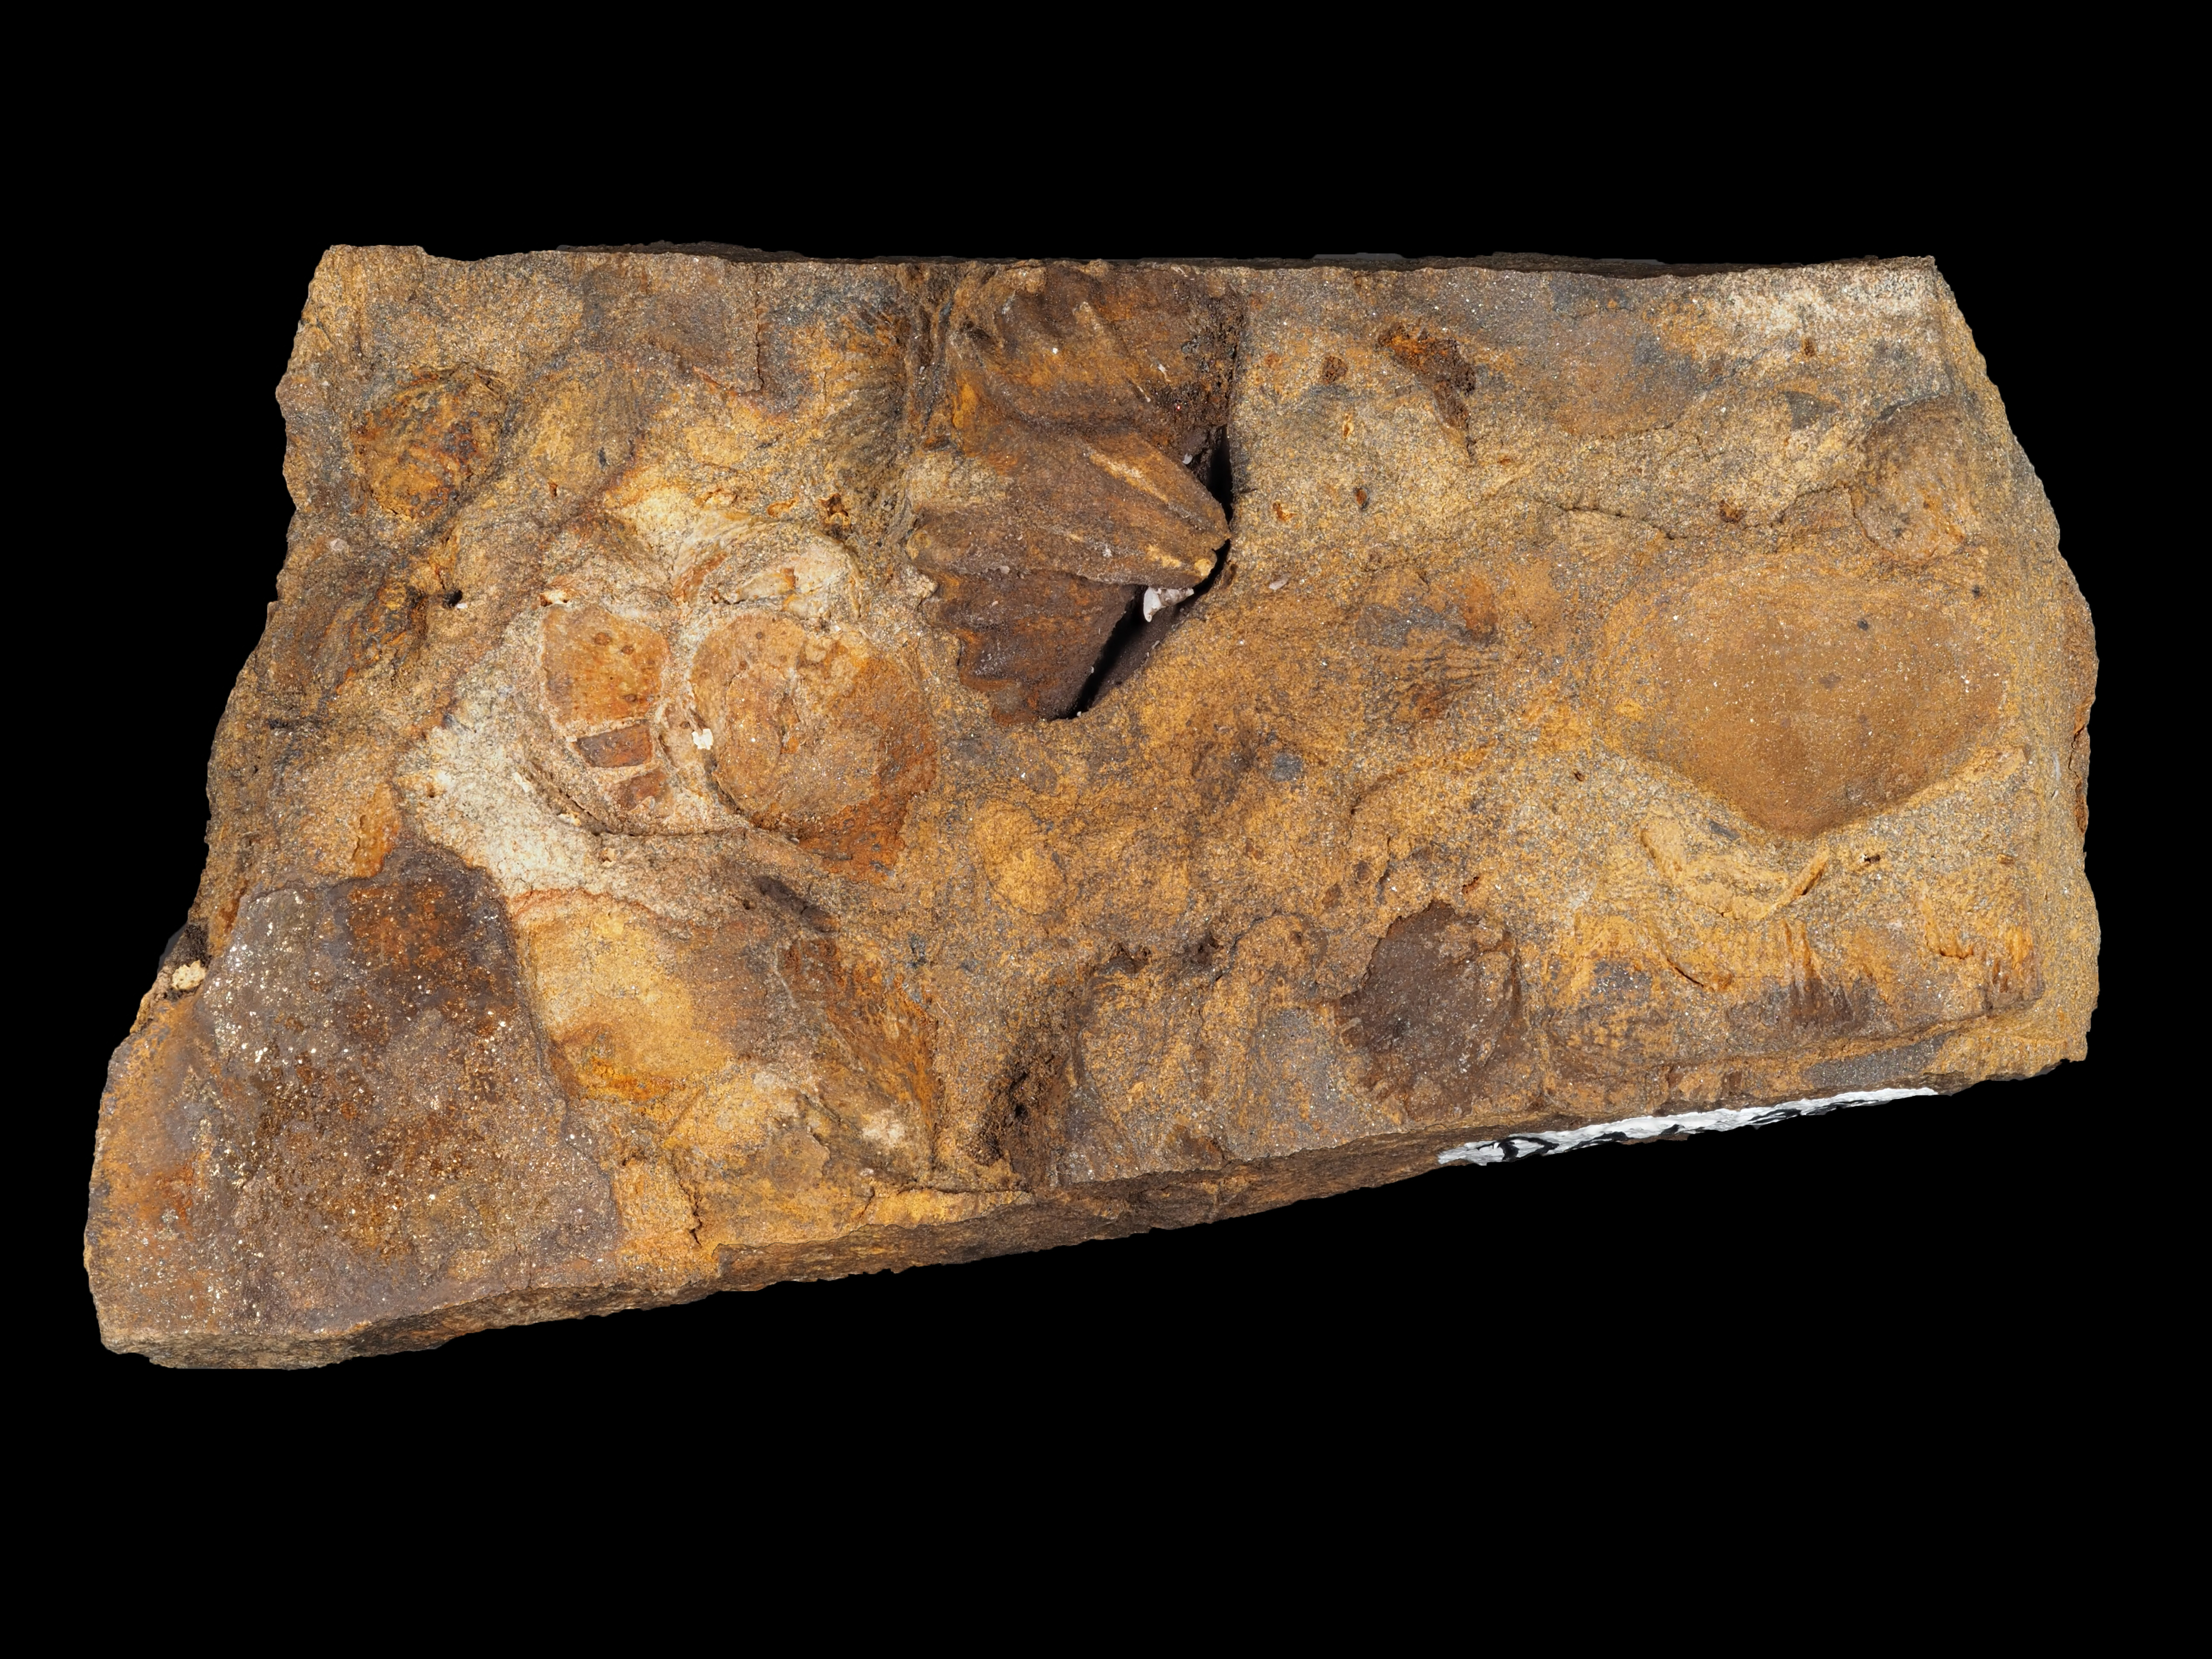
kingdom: Animalia
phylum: Brachiopoda
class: Rhynchonellata
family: Hysterolitidae
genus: Arduspirifer
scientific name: Arduspirifer
